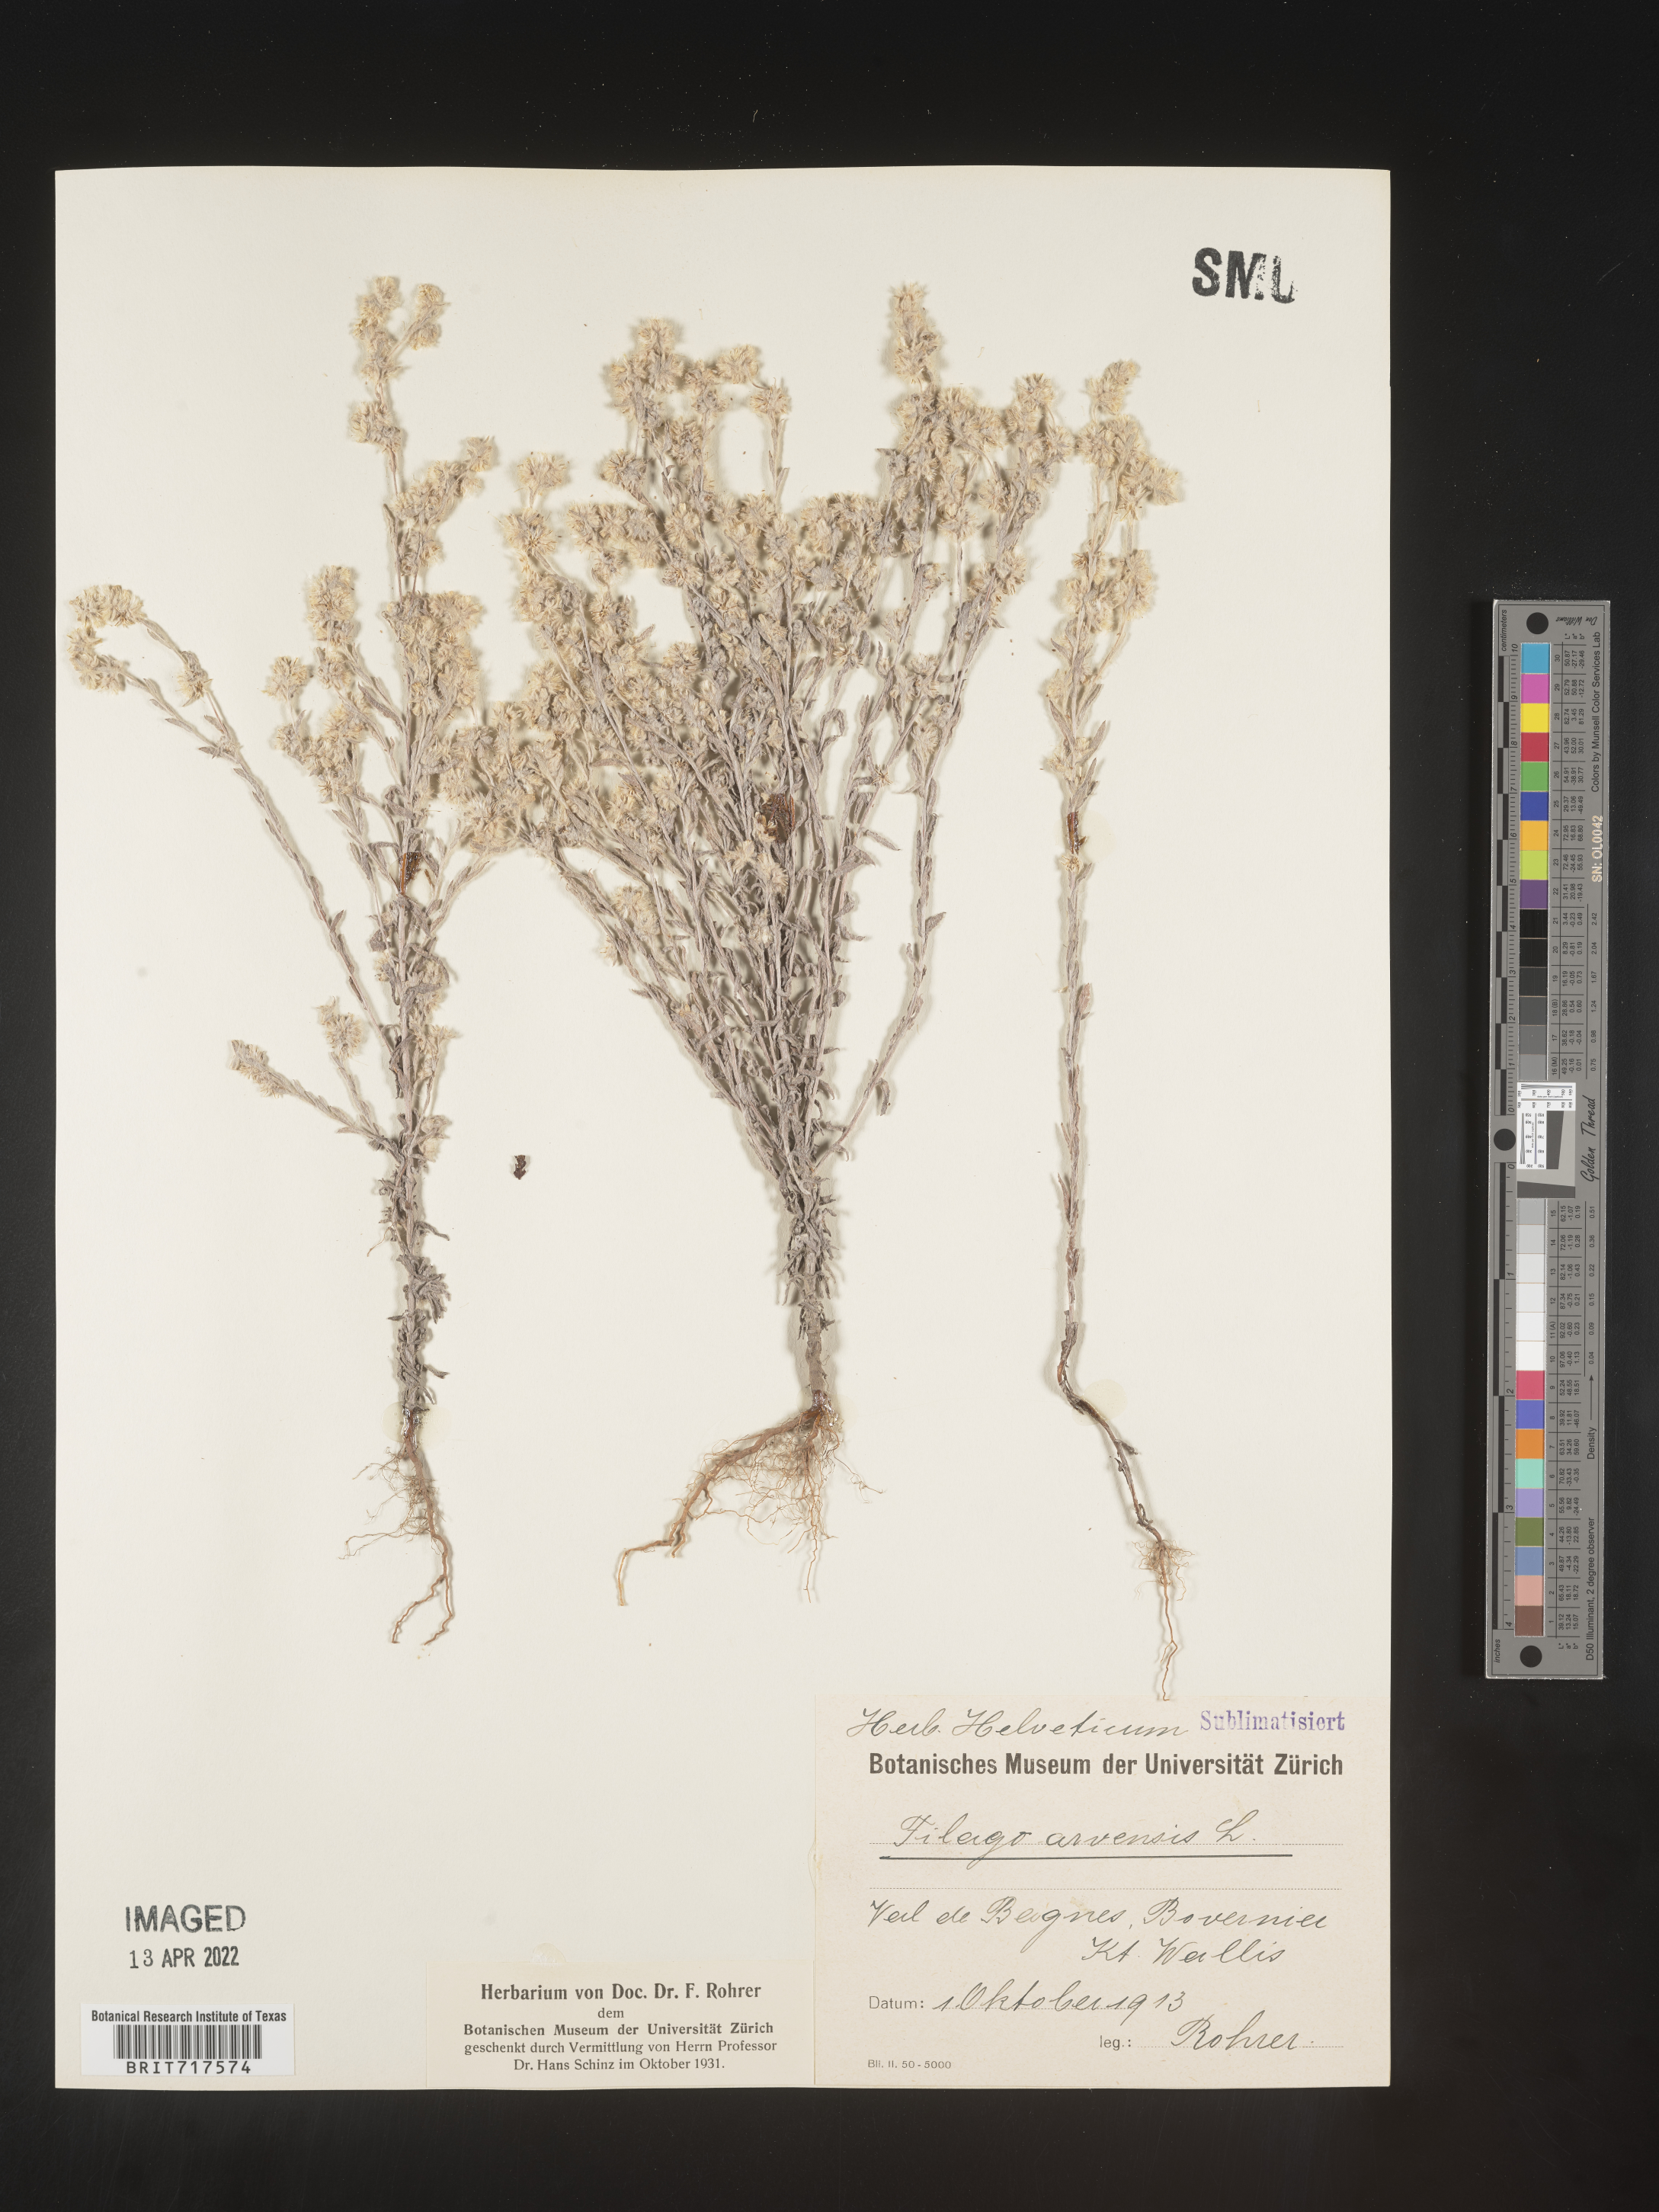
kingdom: Plantae
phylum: Tracheophyta
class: Magnoliopsida
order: Asterales
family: Asteraceae
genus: Filago
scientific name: Filago
